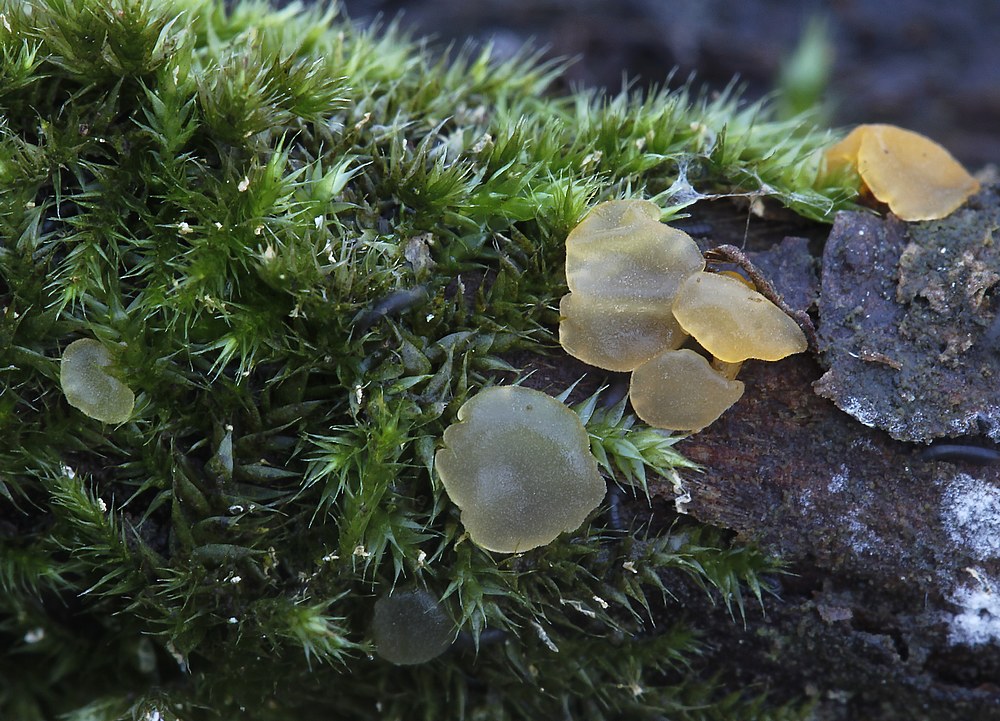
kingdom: Fungi
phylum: Basidiomycota
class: Dacrymycetes
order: Dacrymycetales
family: Dacrymycetaceae
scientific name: Dacrymycetaceae
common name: tåresvampfamilien
